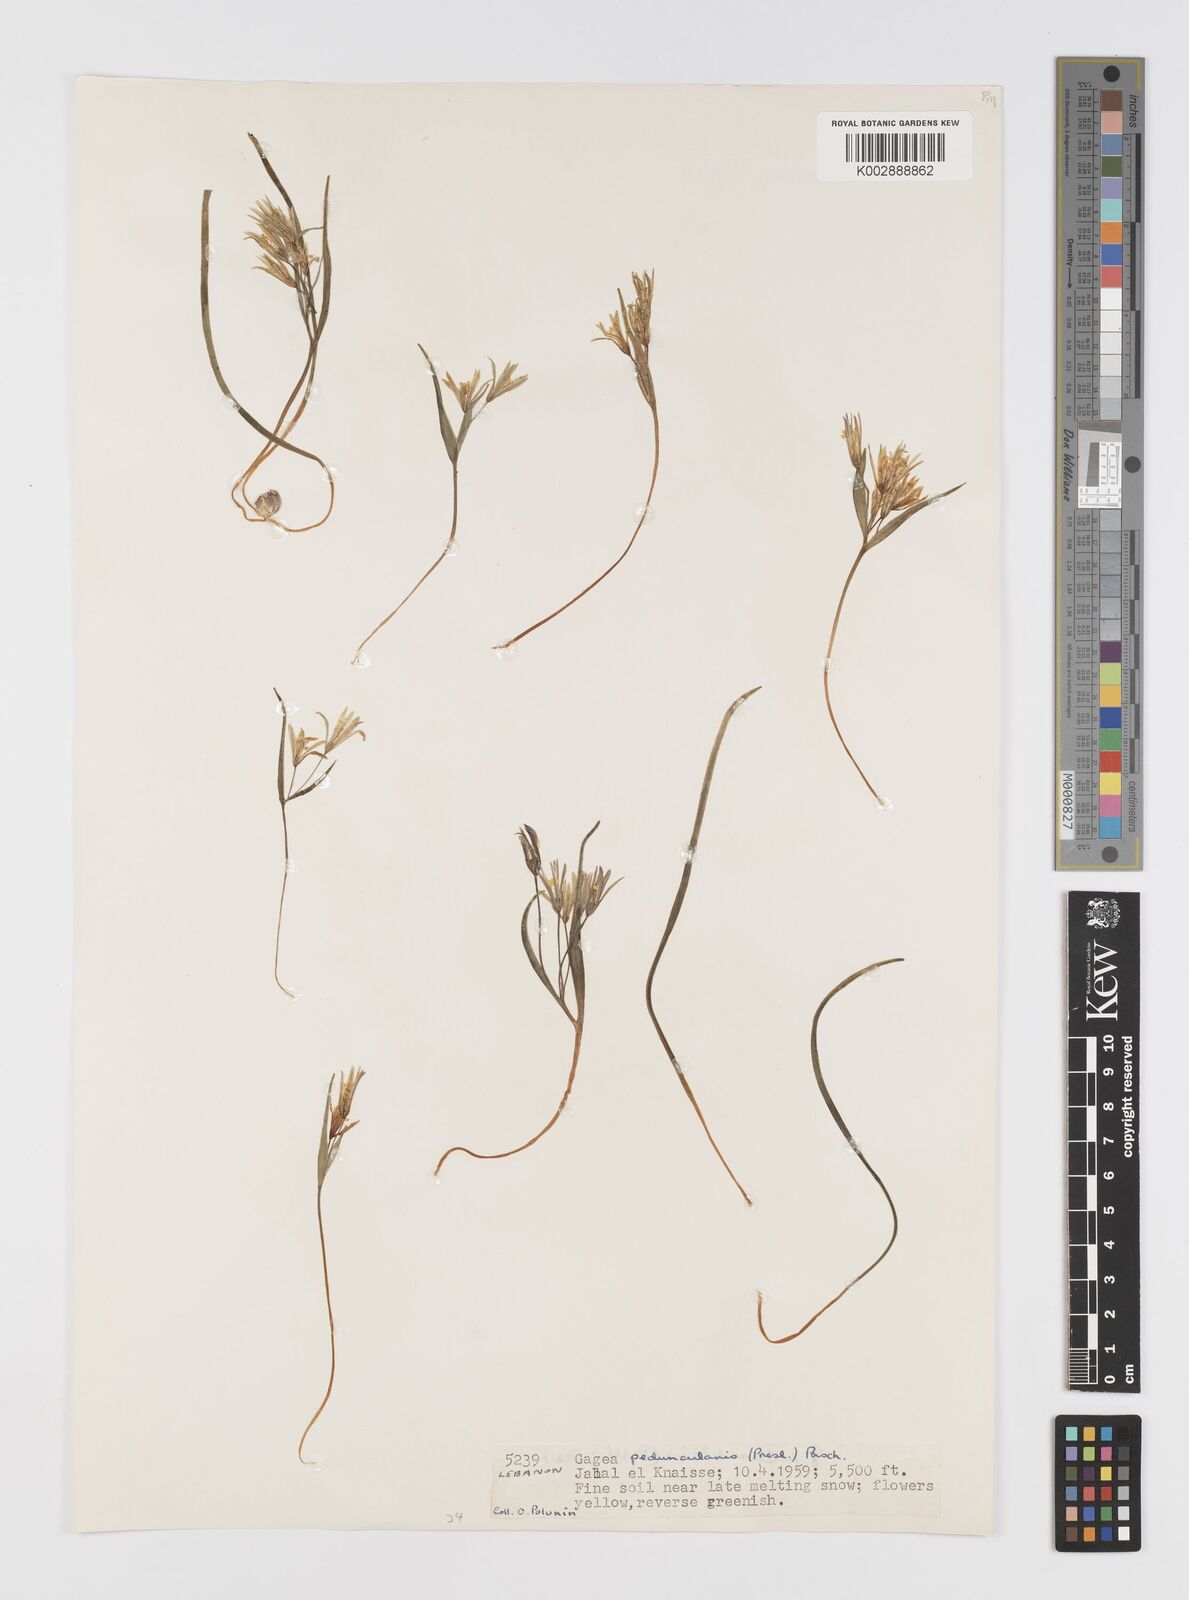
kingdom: Plantae
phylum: Tracheophyta
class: Liliopsida
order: Liliales
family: Liliaceae
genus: Gagea
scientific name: Gagea
